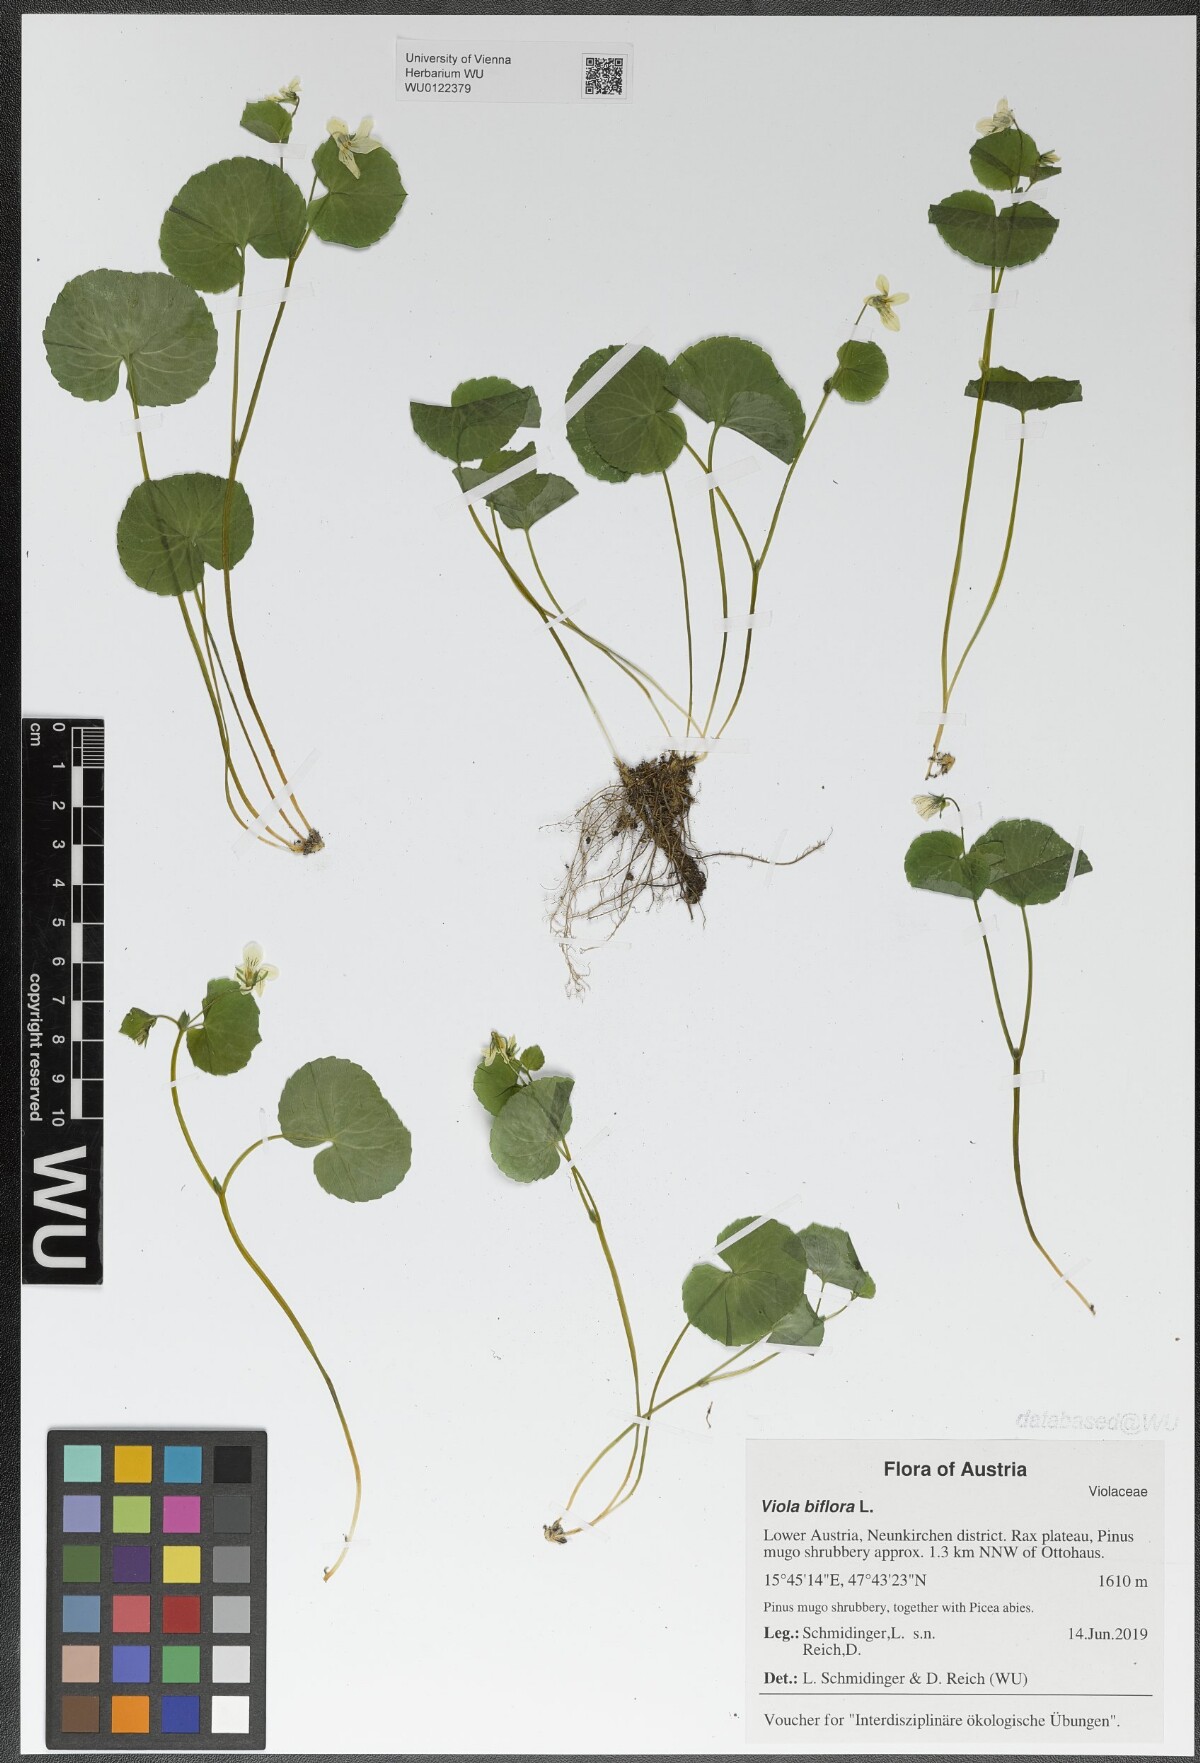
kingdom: Plantae
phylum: Tracheophyta
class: Magnoliopsida
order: Malpighiales
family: Violaceae
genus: Viola
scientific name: Viola biflora
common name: Alpine yellow violet
